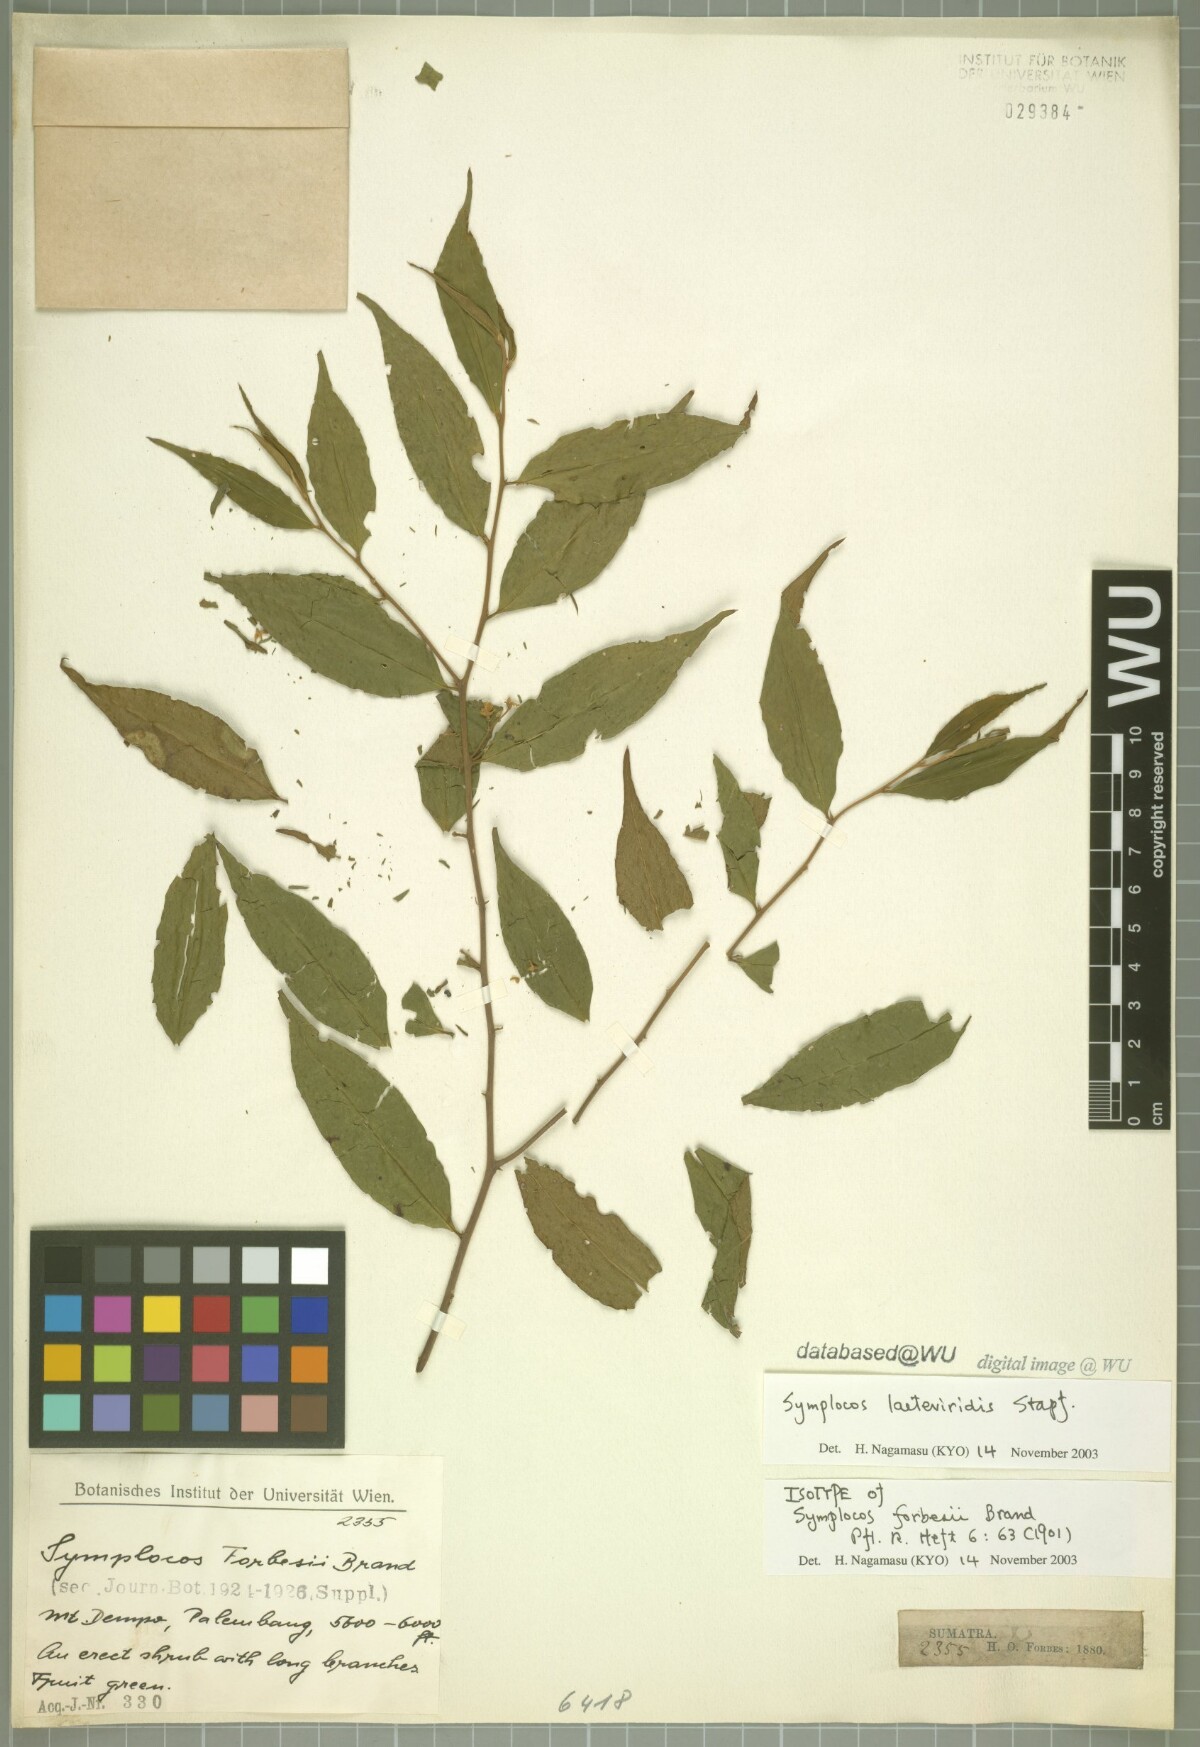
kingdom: Plantae
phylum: Tracheophyta
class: Magnoliopsida
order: Ericales
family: Symplocaceae
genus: Symplocos
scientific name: Symplocos laeteviridis
